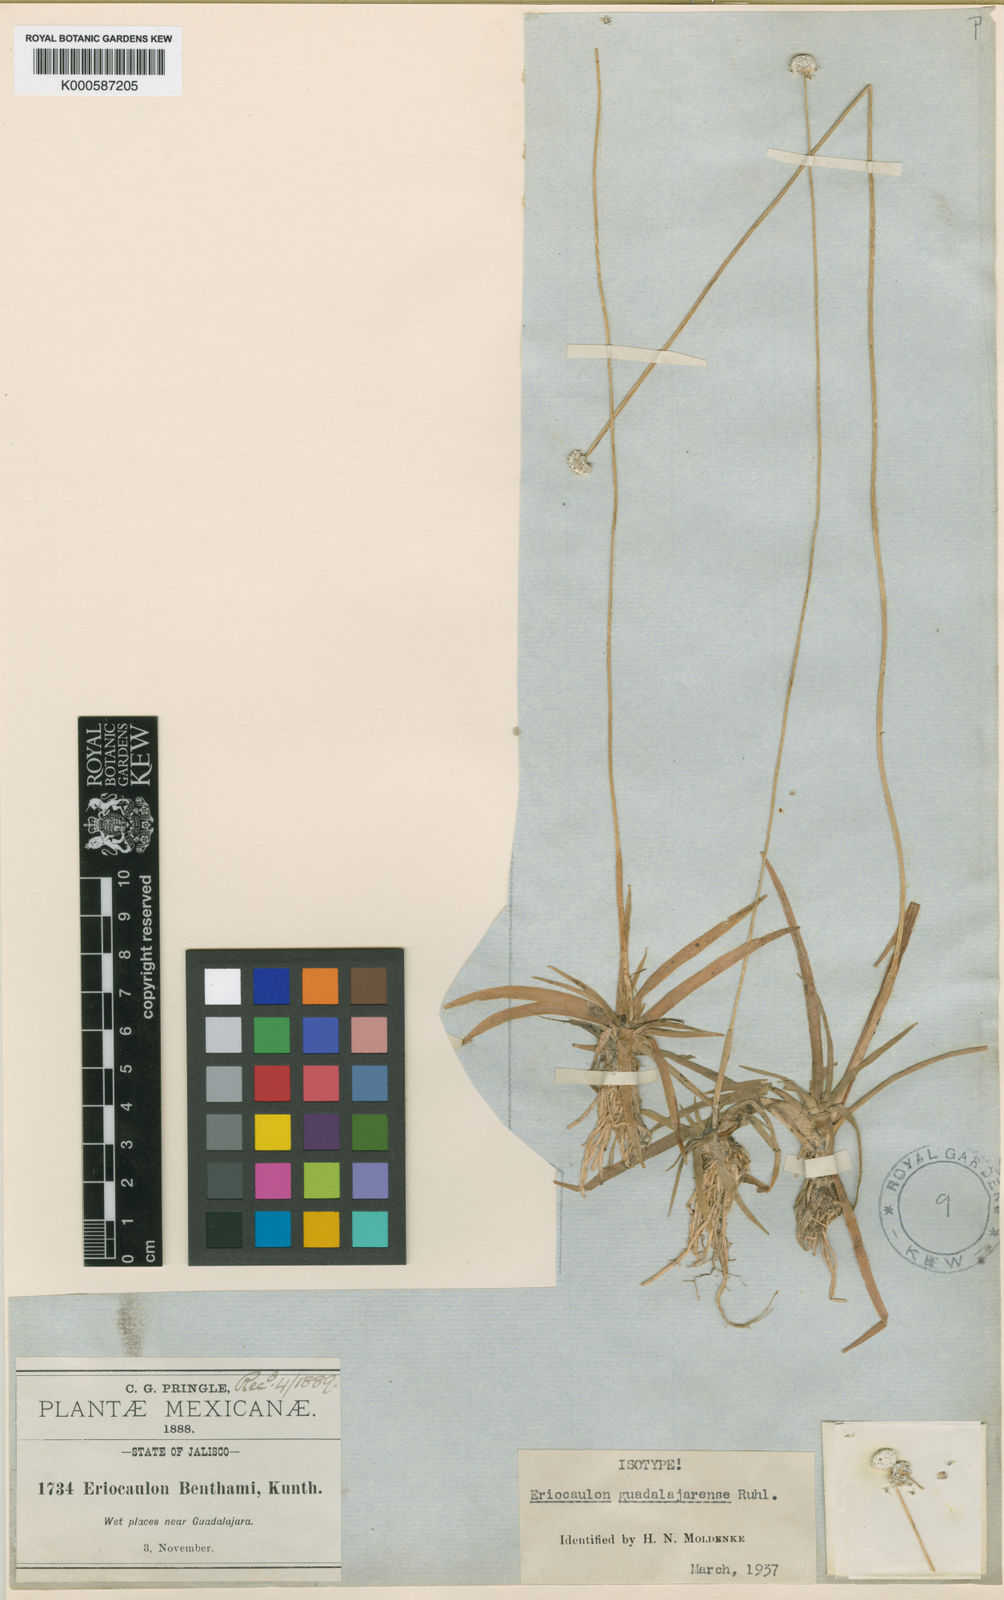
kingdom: Plantae
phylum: Tracheophyta
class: Liliopsida
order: Poales
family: Eriocaulaceae
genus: Eriocaulon
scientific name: Eriocaulon benthamii
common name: Bentham's pipewort
